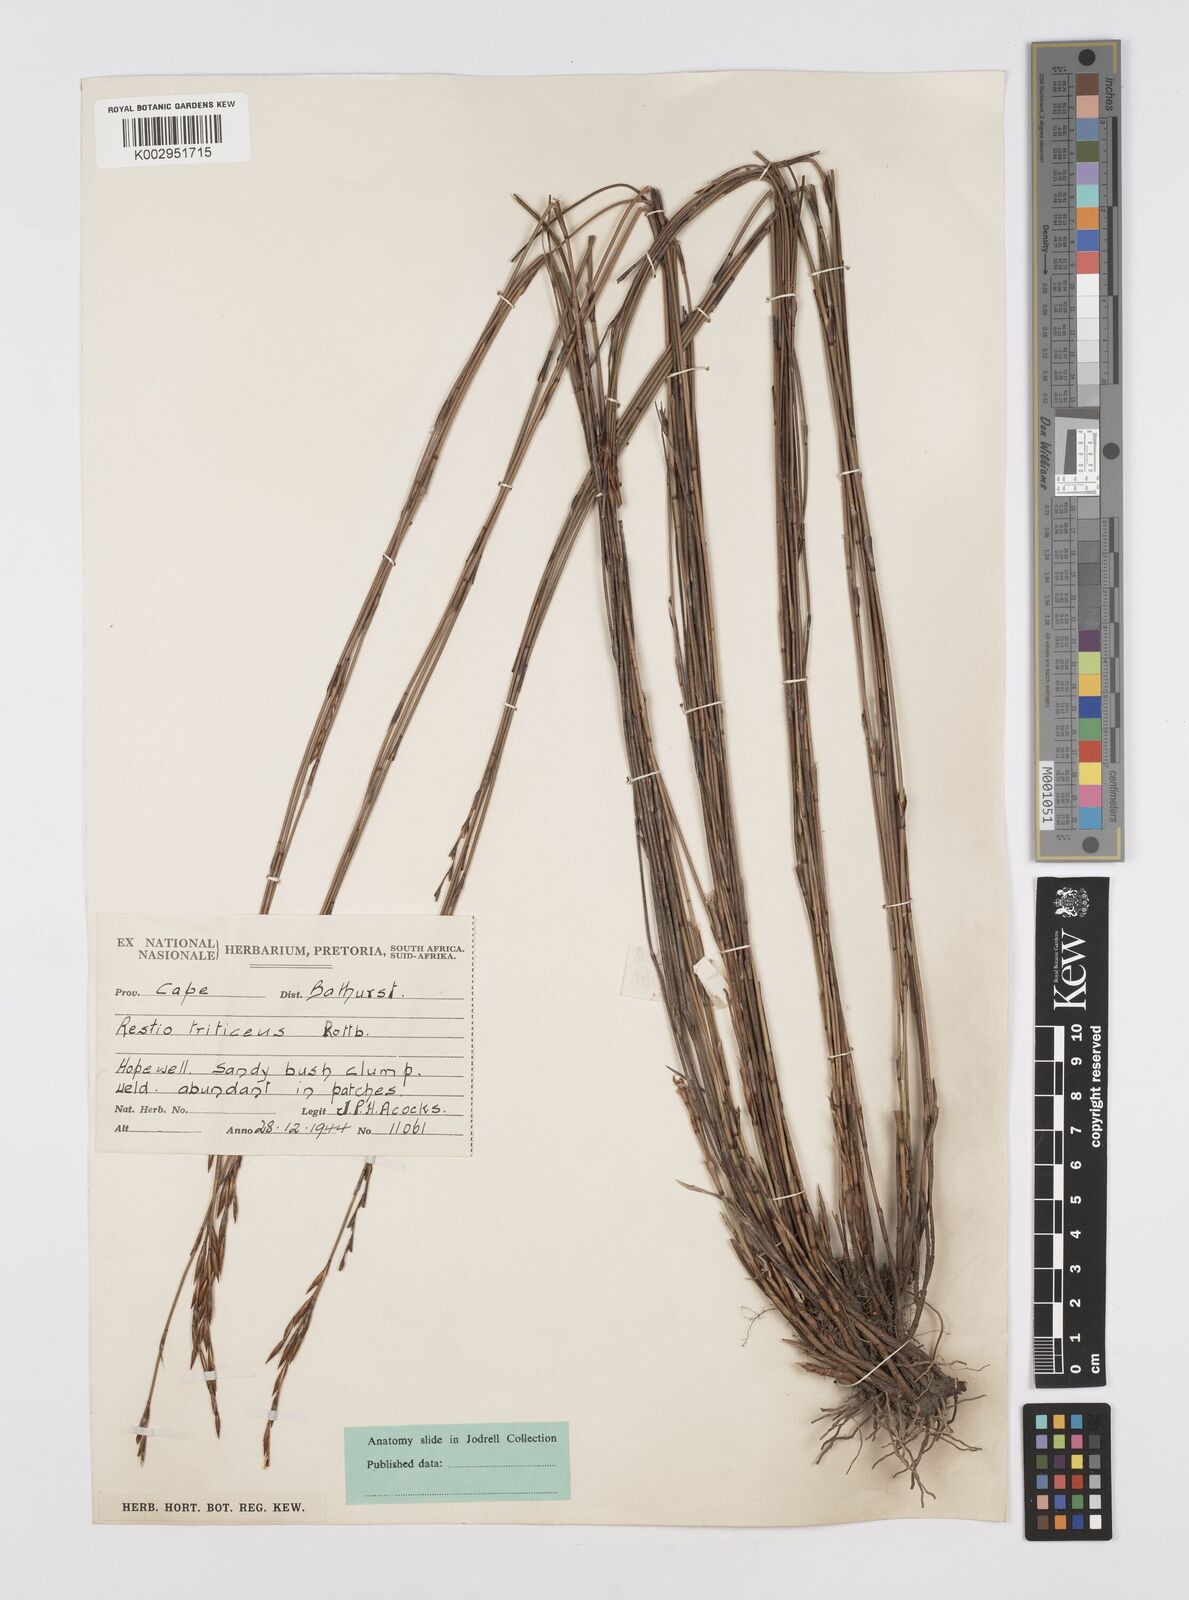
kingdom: Plantae
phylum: Tracheophyta
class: Liliopsida
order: Poales
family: Restionaceae
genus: Restio
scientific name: Restio triticeus
